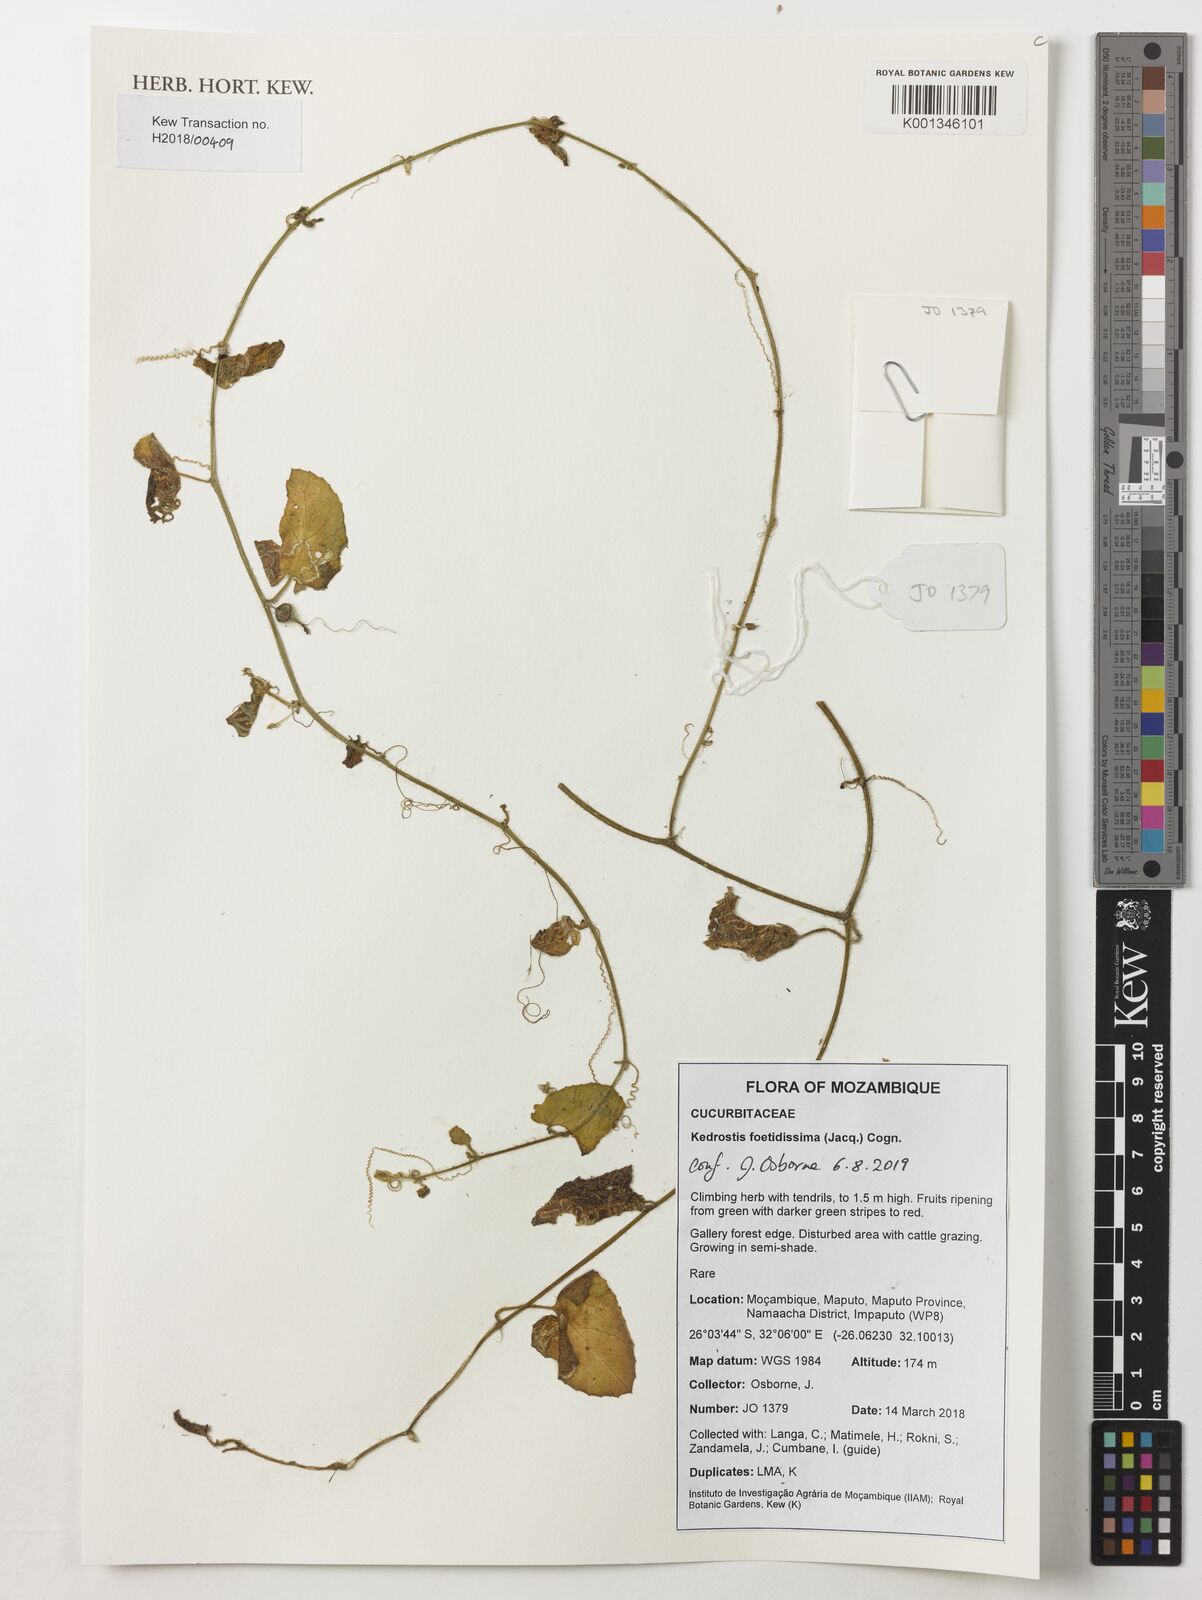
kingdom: Plantae
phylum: Tracheophyta
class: Magnoliopsida
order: Cucurbitales
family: Cucurbitaceae
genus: Kedrostis
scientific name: Kedrostis foetidissima
